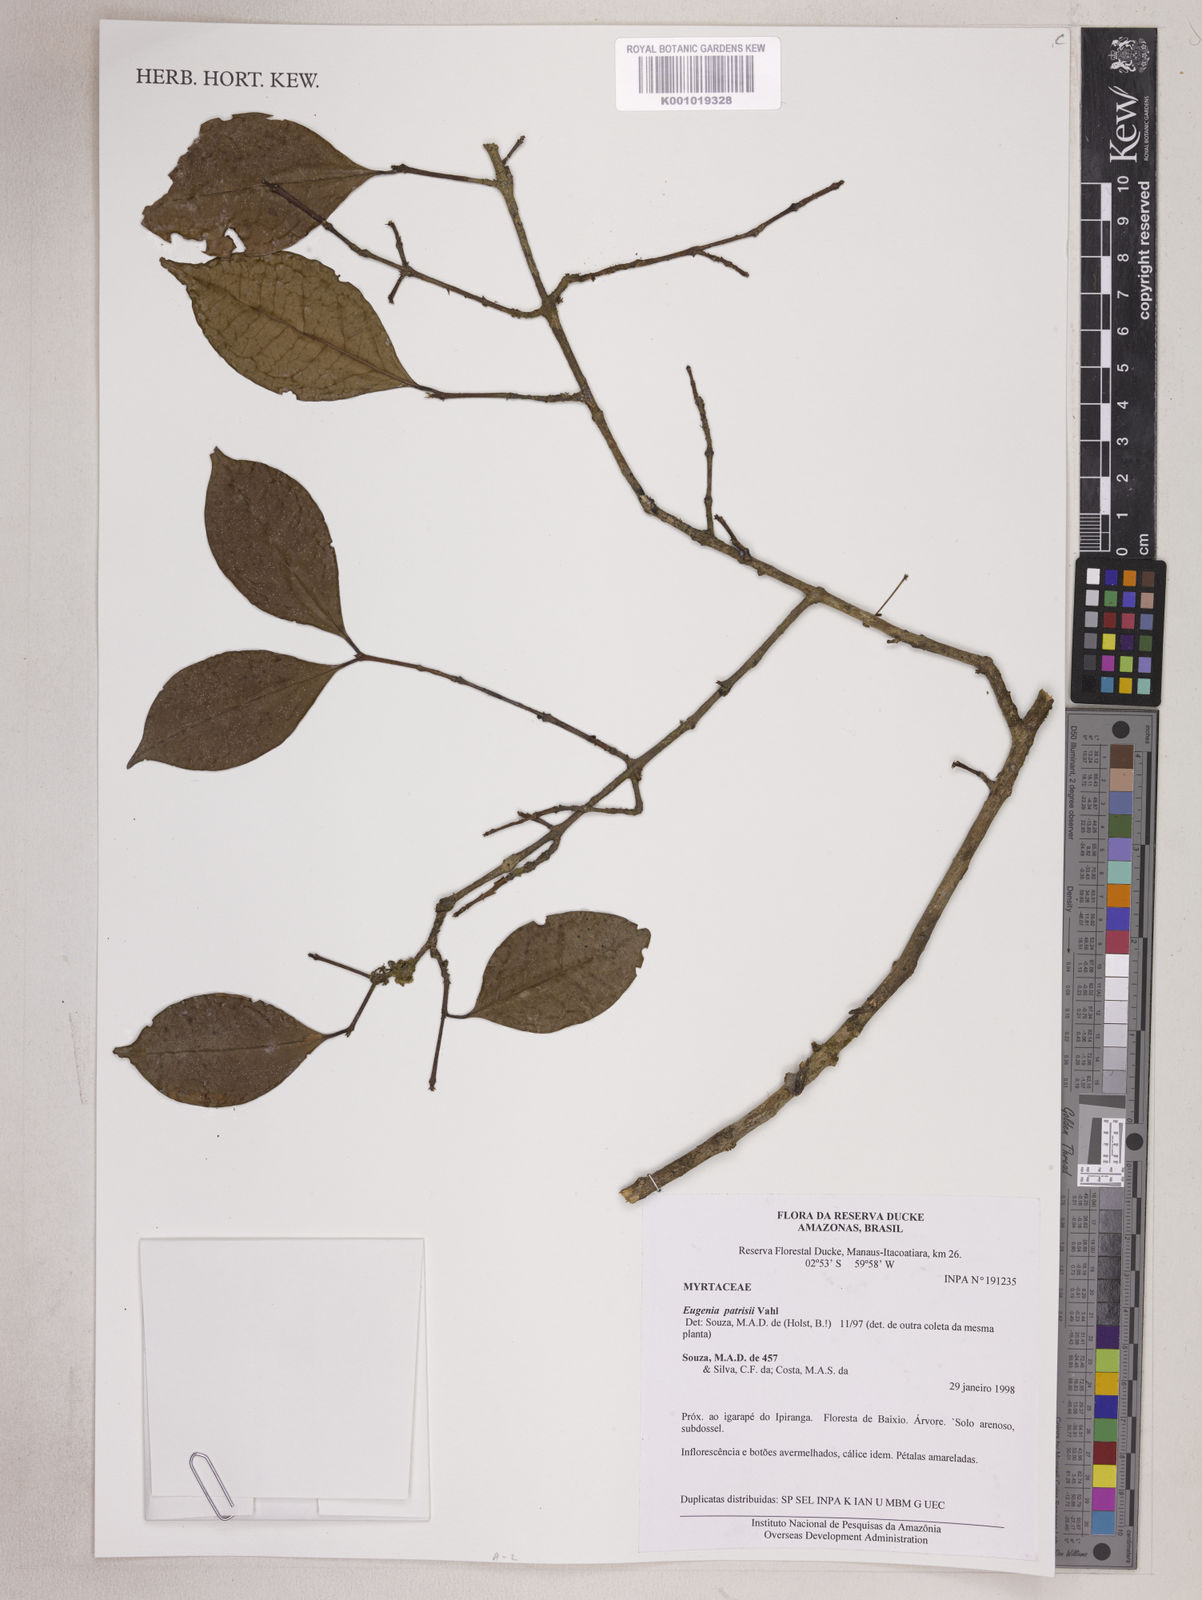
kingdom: Plantae
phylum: Tracheophyta
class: Magnoliopsida
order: Myrtales
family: Myrtaceae
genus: Eugenia
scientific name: Eugenia patrisii
